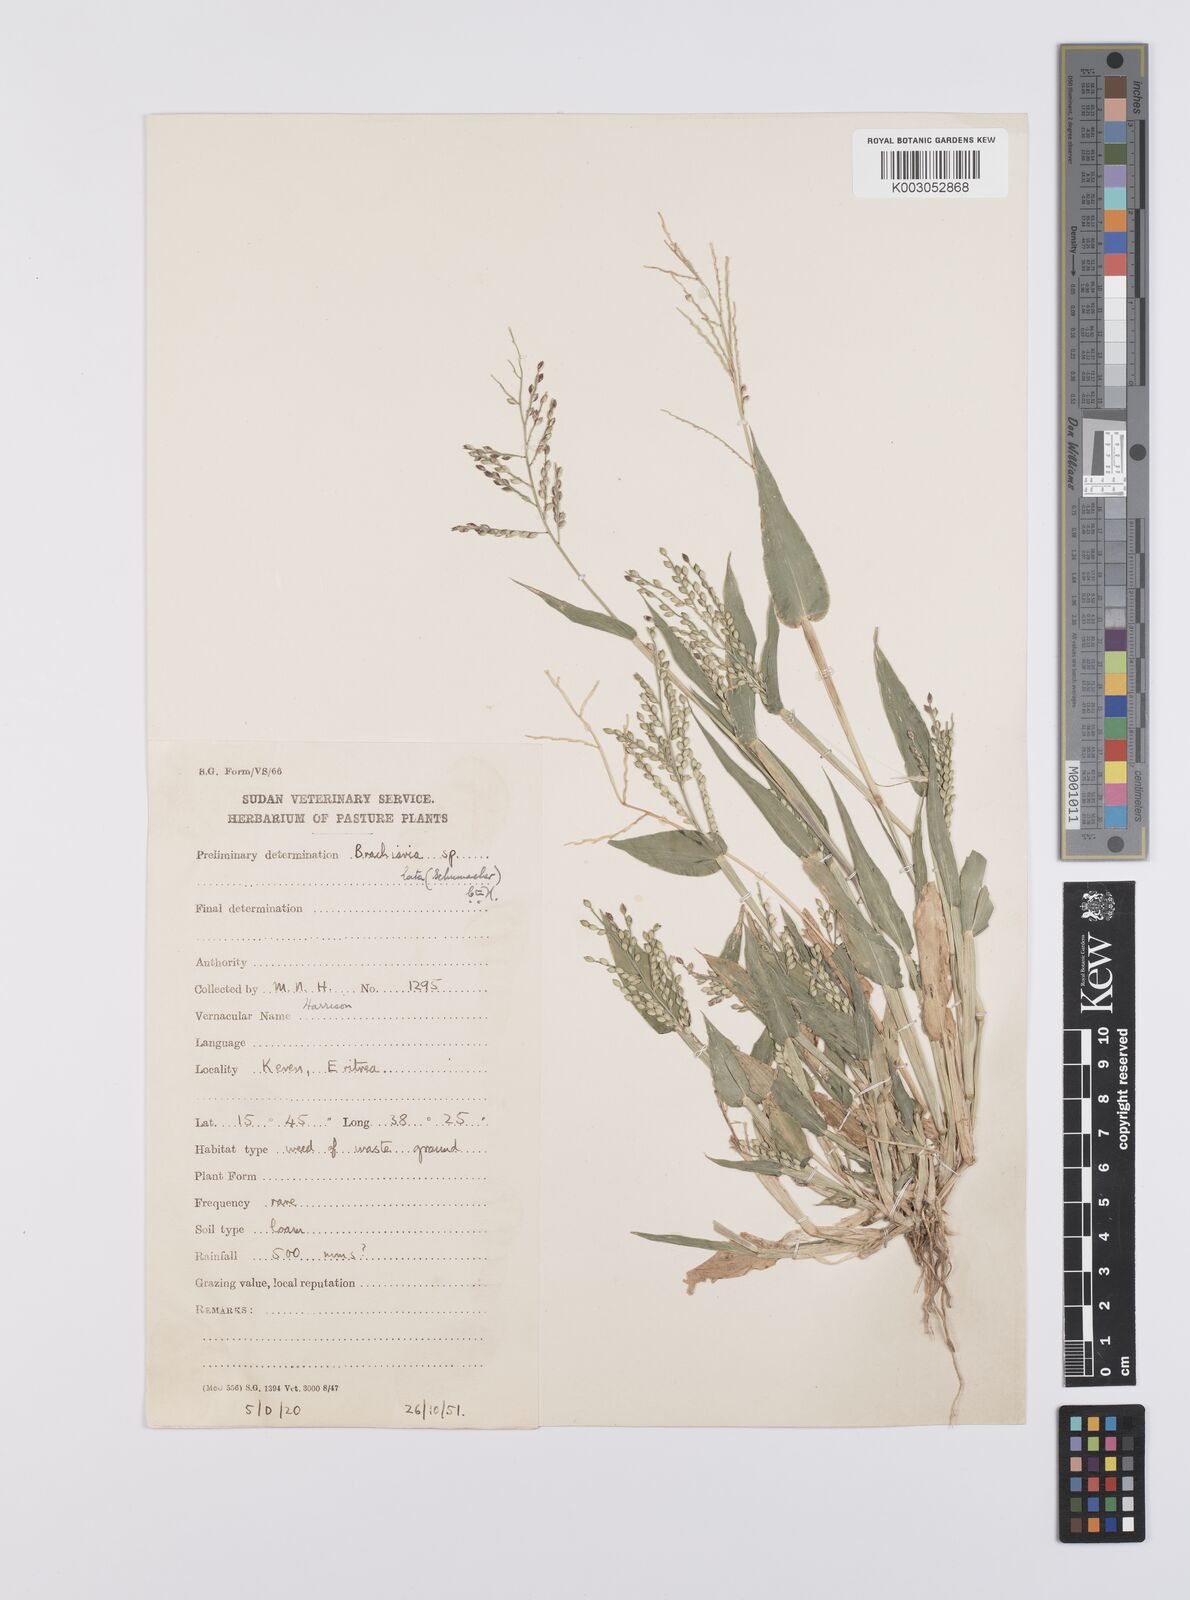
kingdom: Plantae
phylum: Tracheophyta
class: Liliopsida
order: Poales
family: Poaceae
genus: Urochloa
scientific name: Urochloa lata
